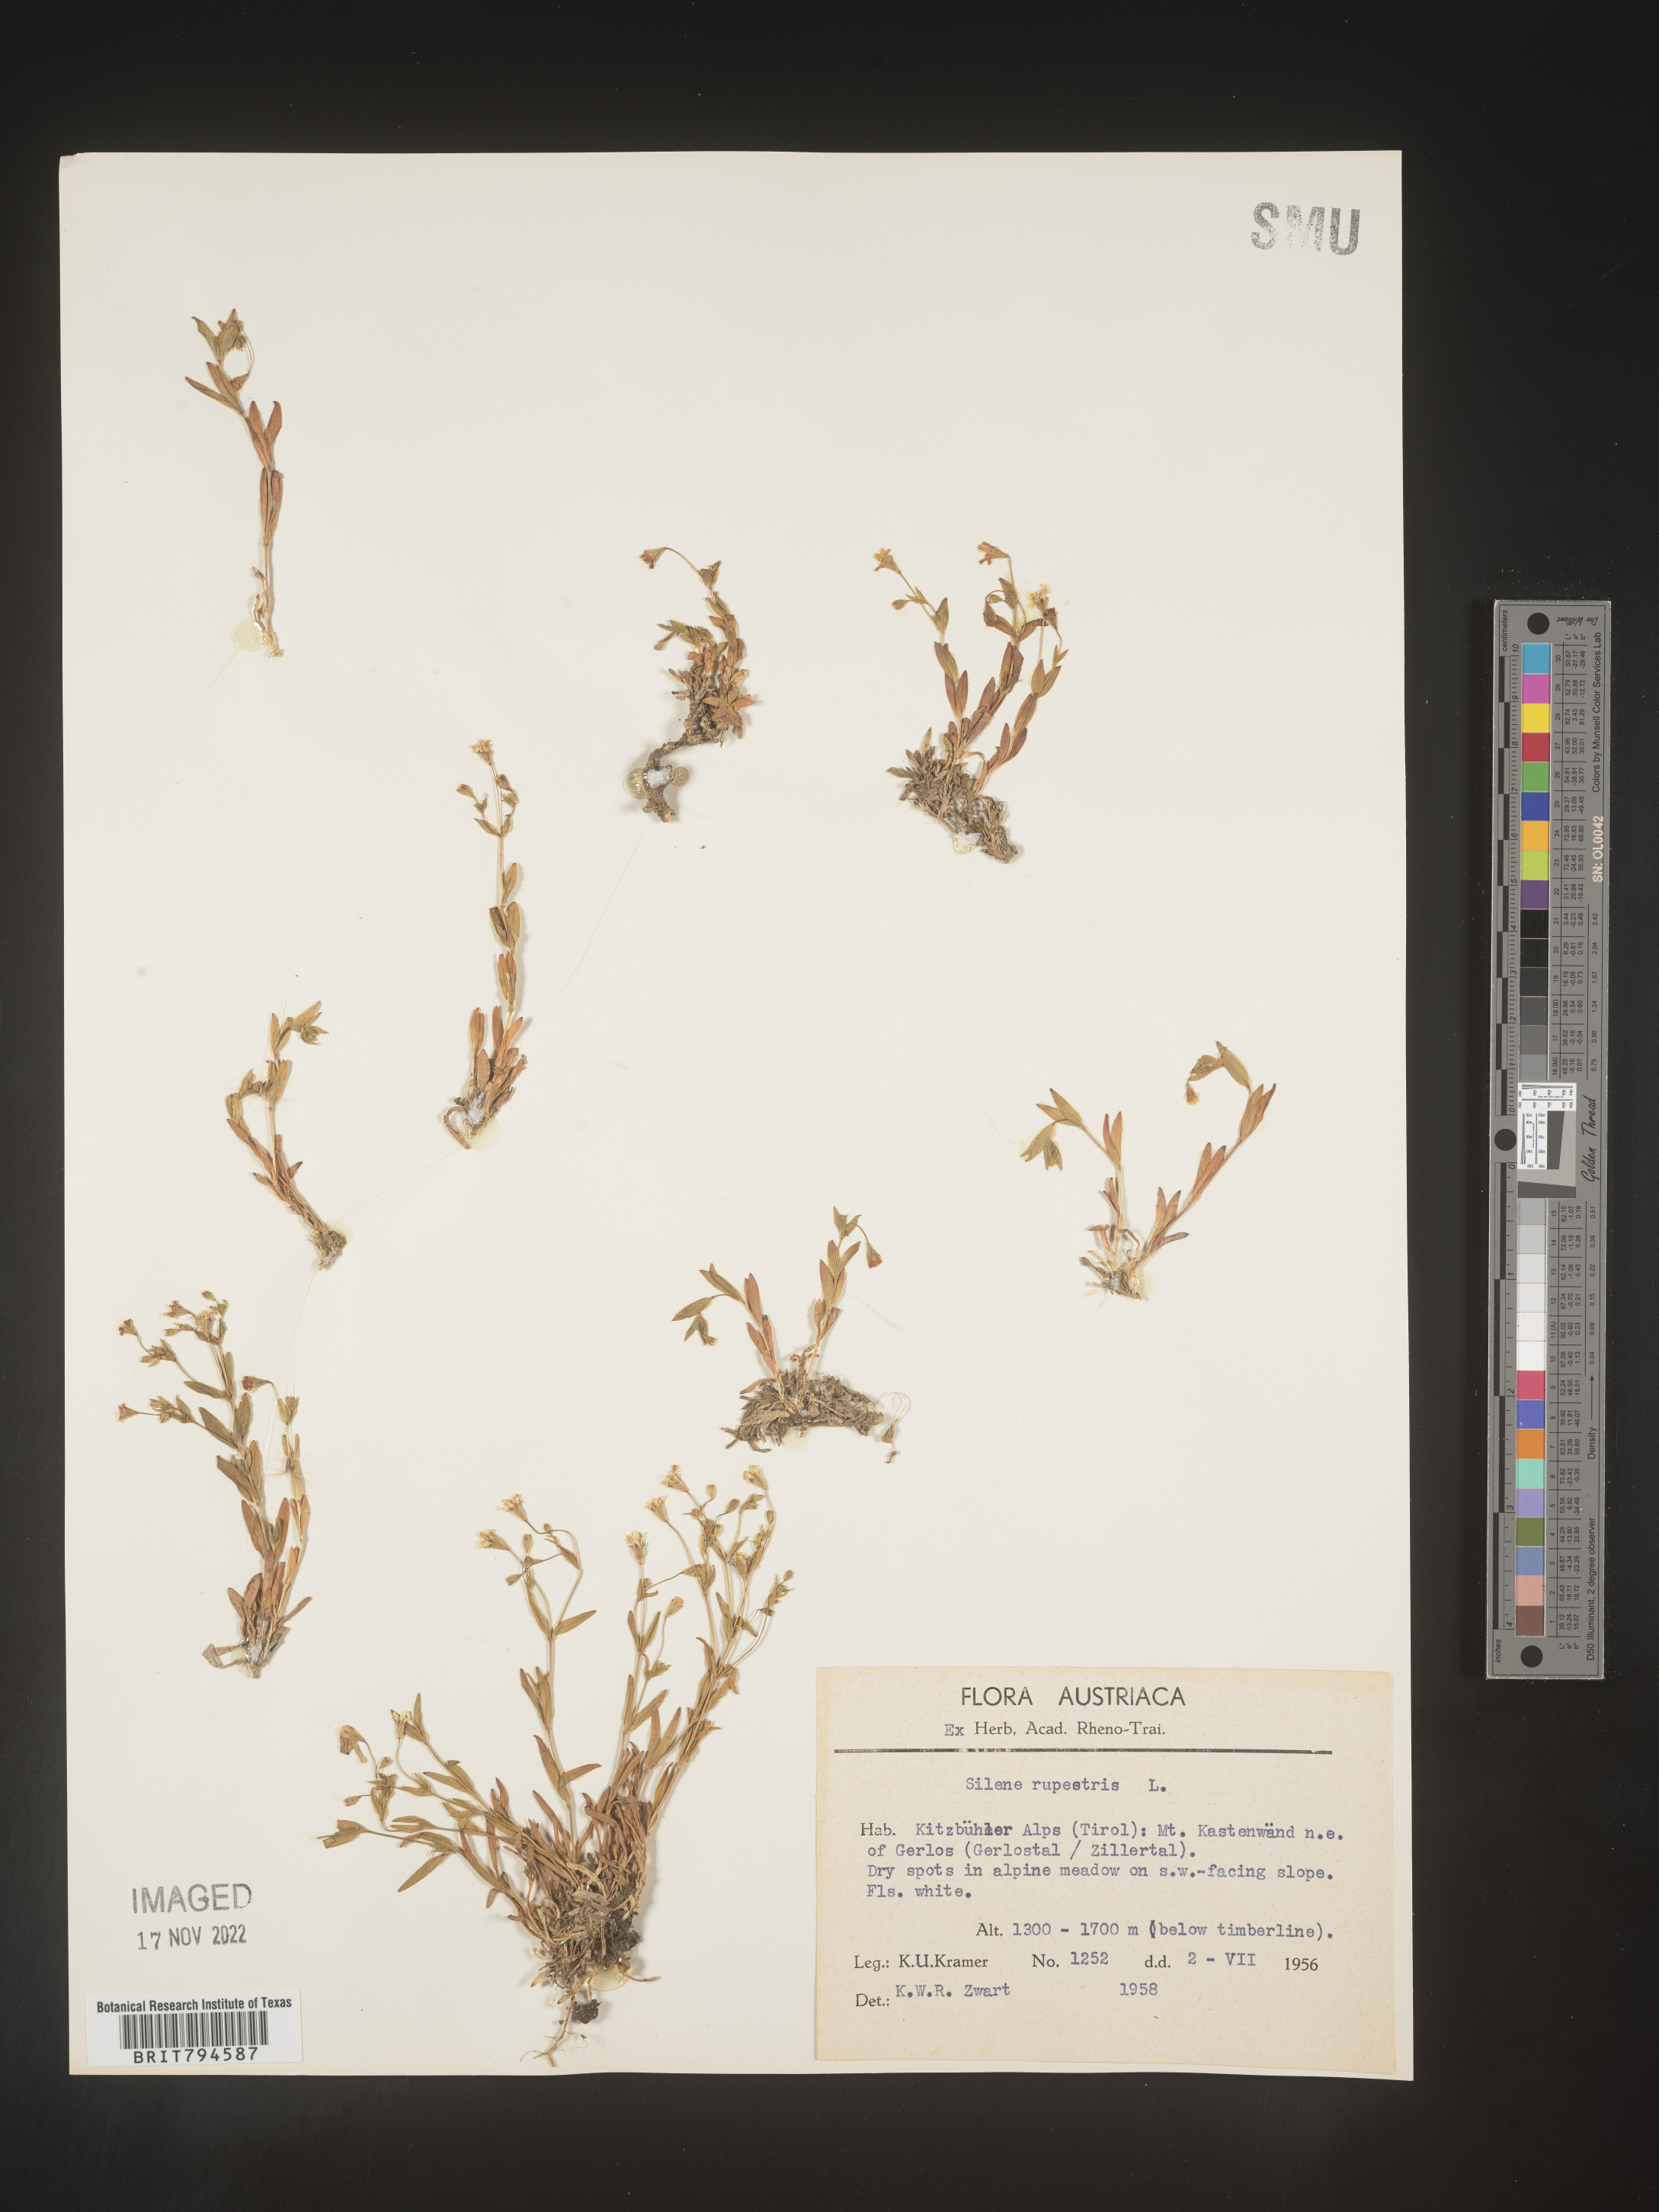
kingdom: Plantae
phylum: Tracheophyta
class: Magnoliopsida
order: Caryophyllales
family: Caryophyllaceae
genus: Atocion
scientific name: Atocion rupestre
